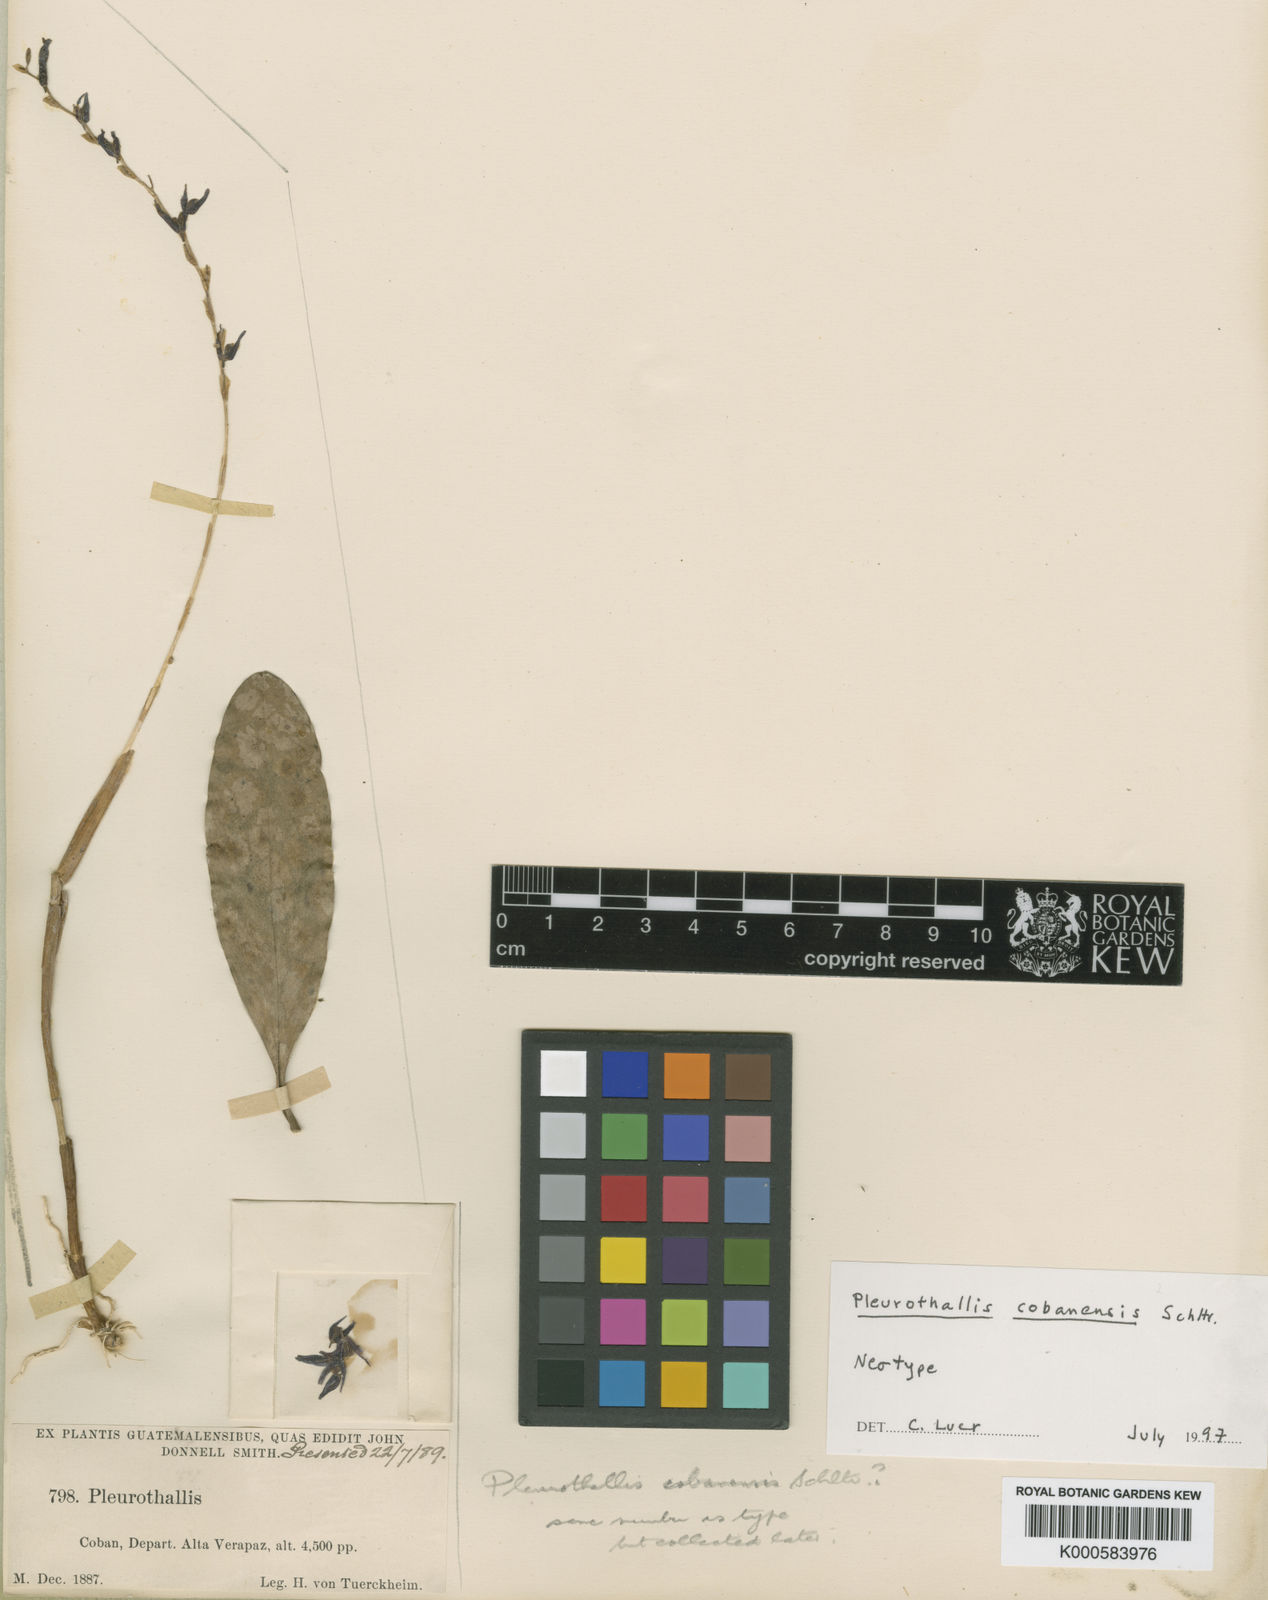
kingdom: Plantae
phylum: Tracheophyta
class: Liliopsida
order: Asparagales
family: Orchidaceae
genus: Stelis
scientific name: Stelis cobanensis
